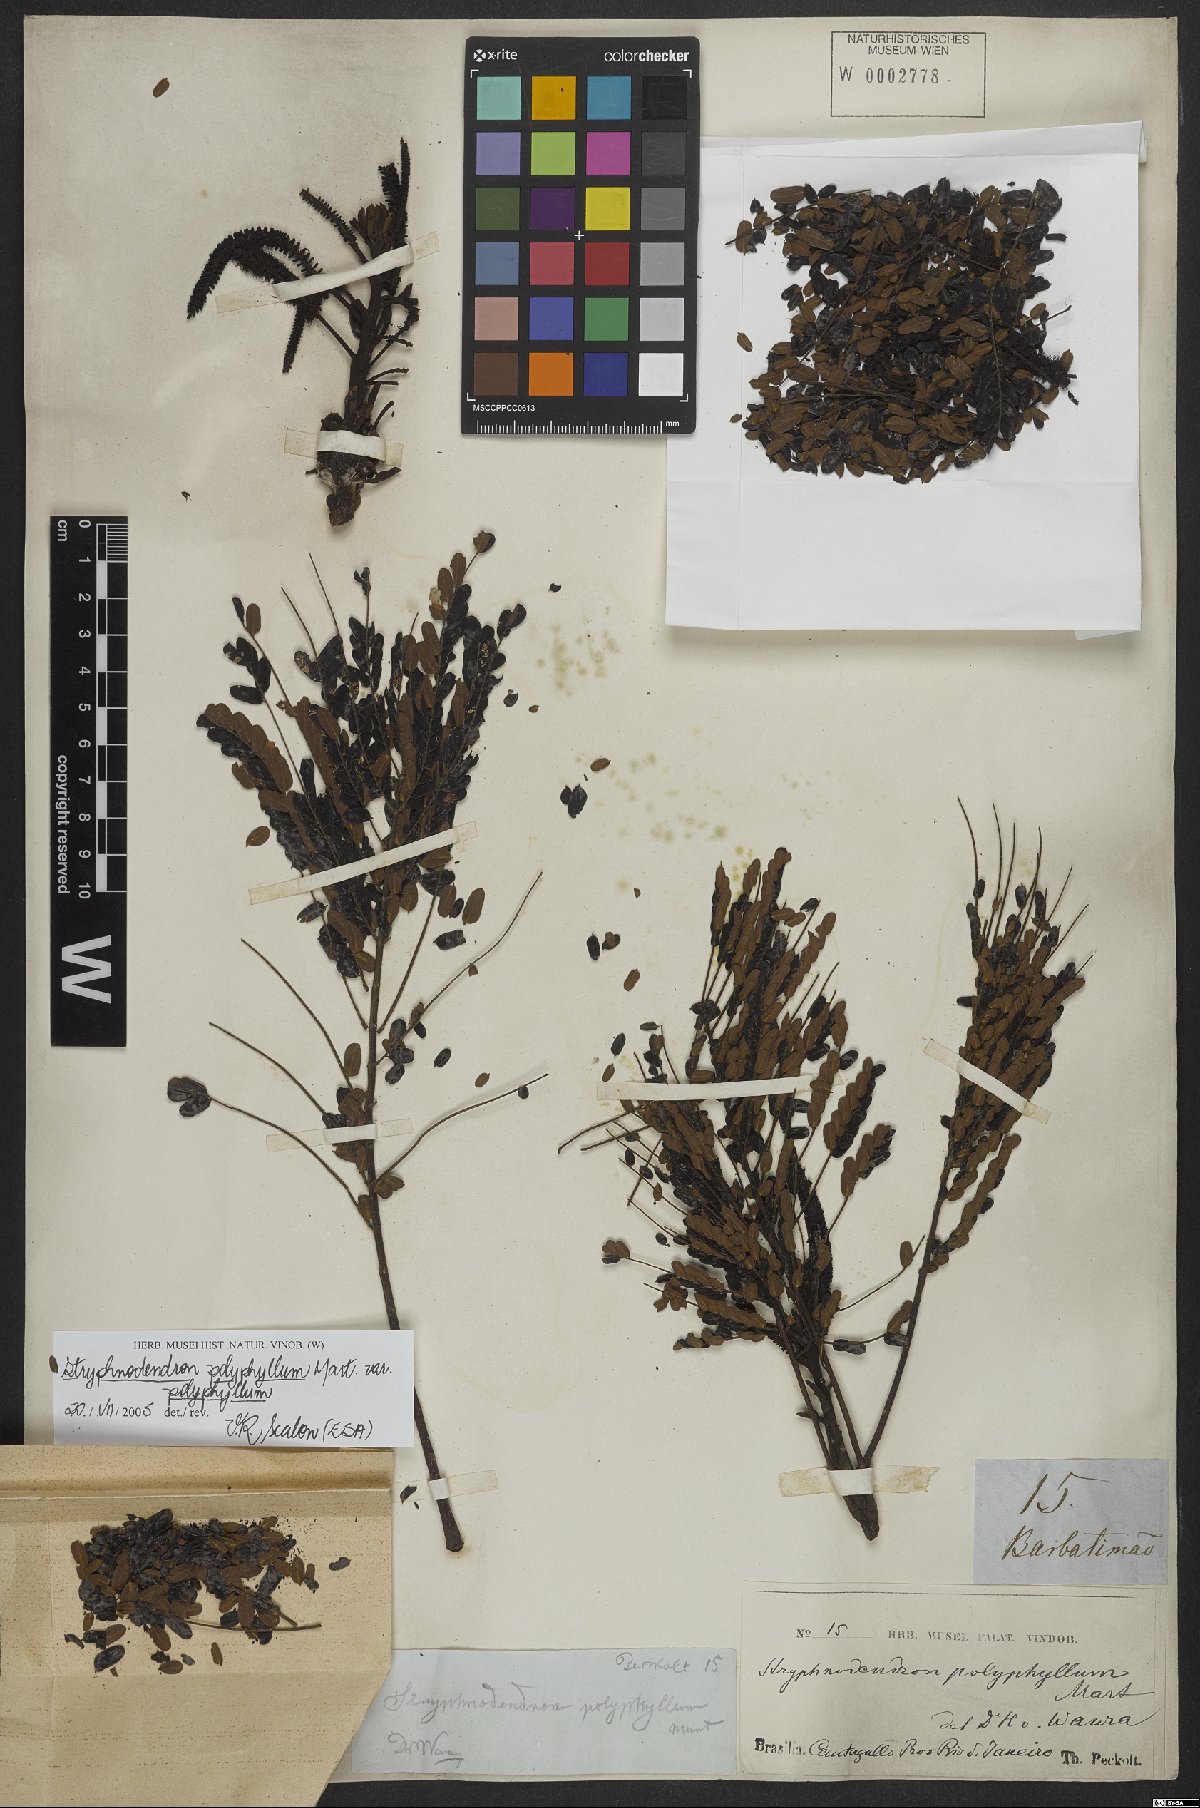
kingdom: Plantae
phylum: Tracheophyta
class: Magnoliopsida
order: Fabales
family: Fabaceae
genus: Stryphnodendron
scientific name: Stryphnodendron polyphyllum
